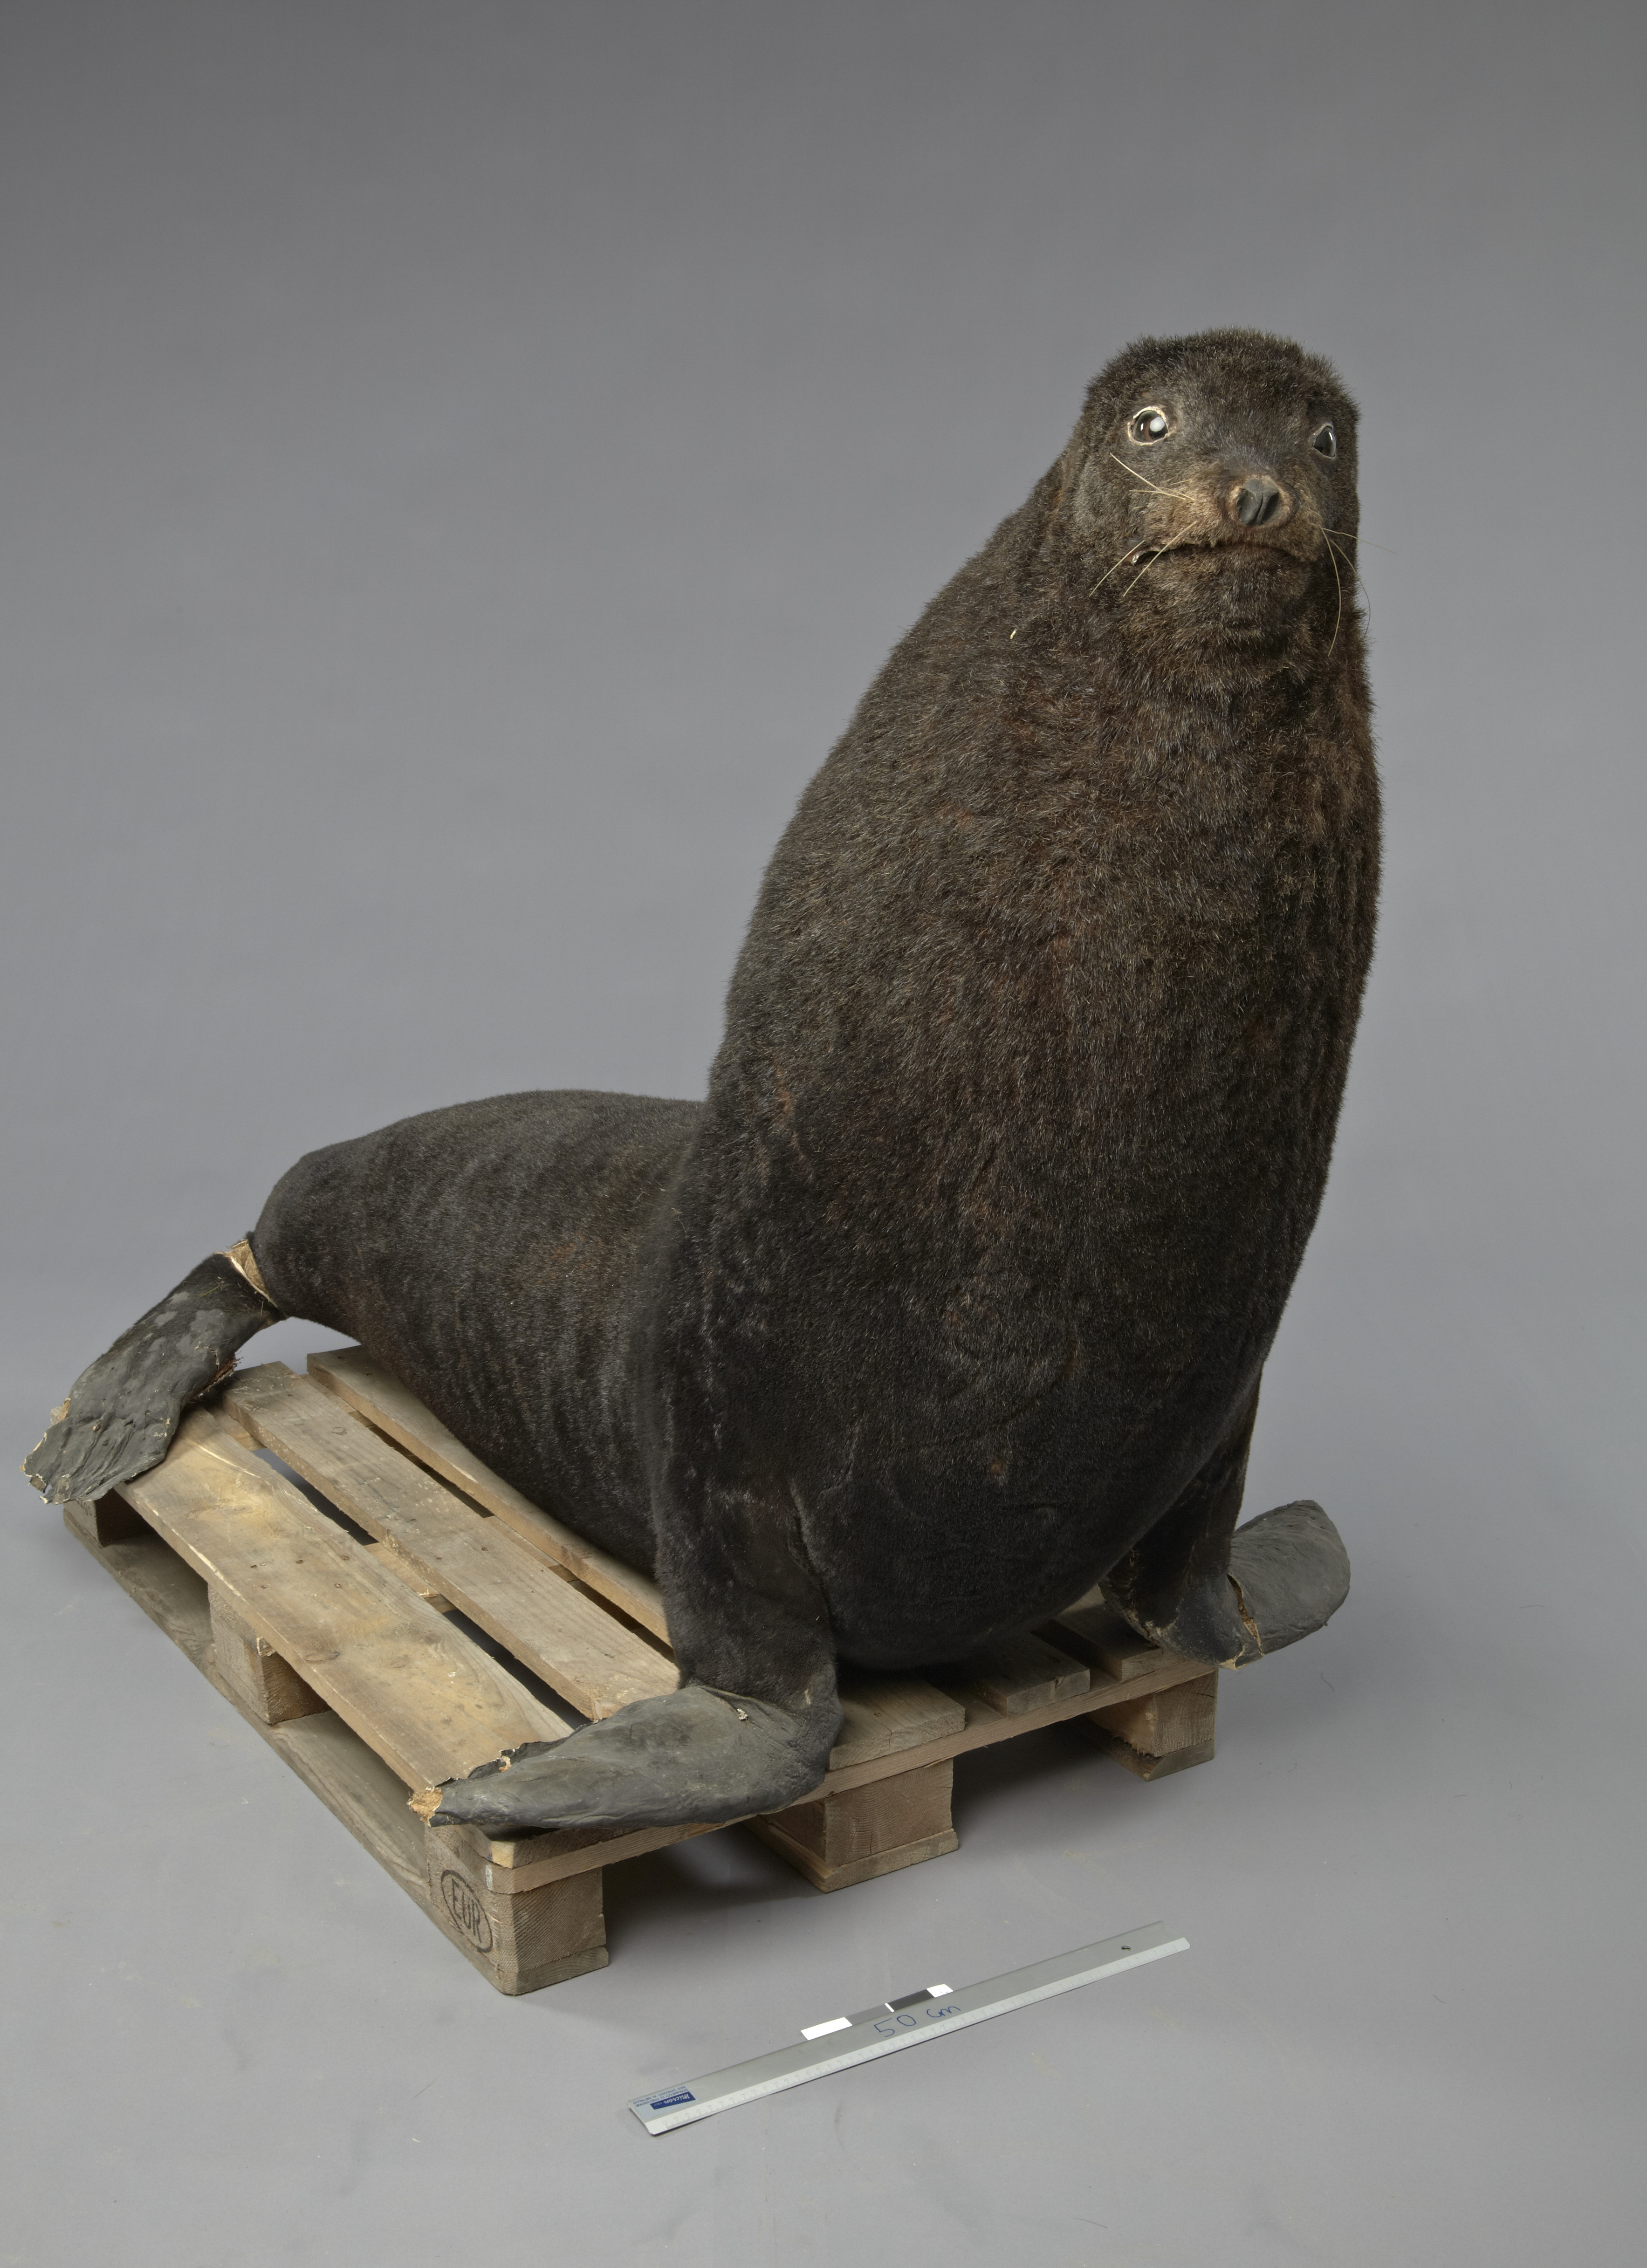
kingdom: Animalia
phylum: Chordata
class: Mammalia
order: Carnivora
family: Otariidae
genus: Arctocephalus
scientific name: Arctocephalus pusillus
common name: Brown fur seal
